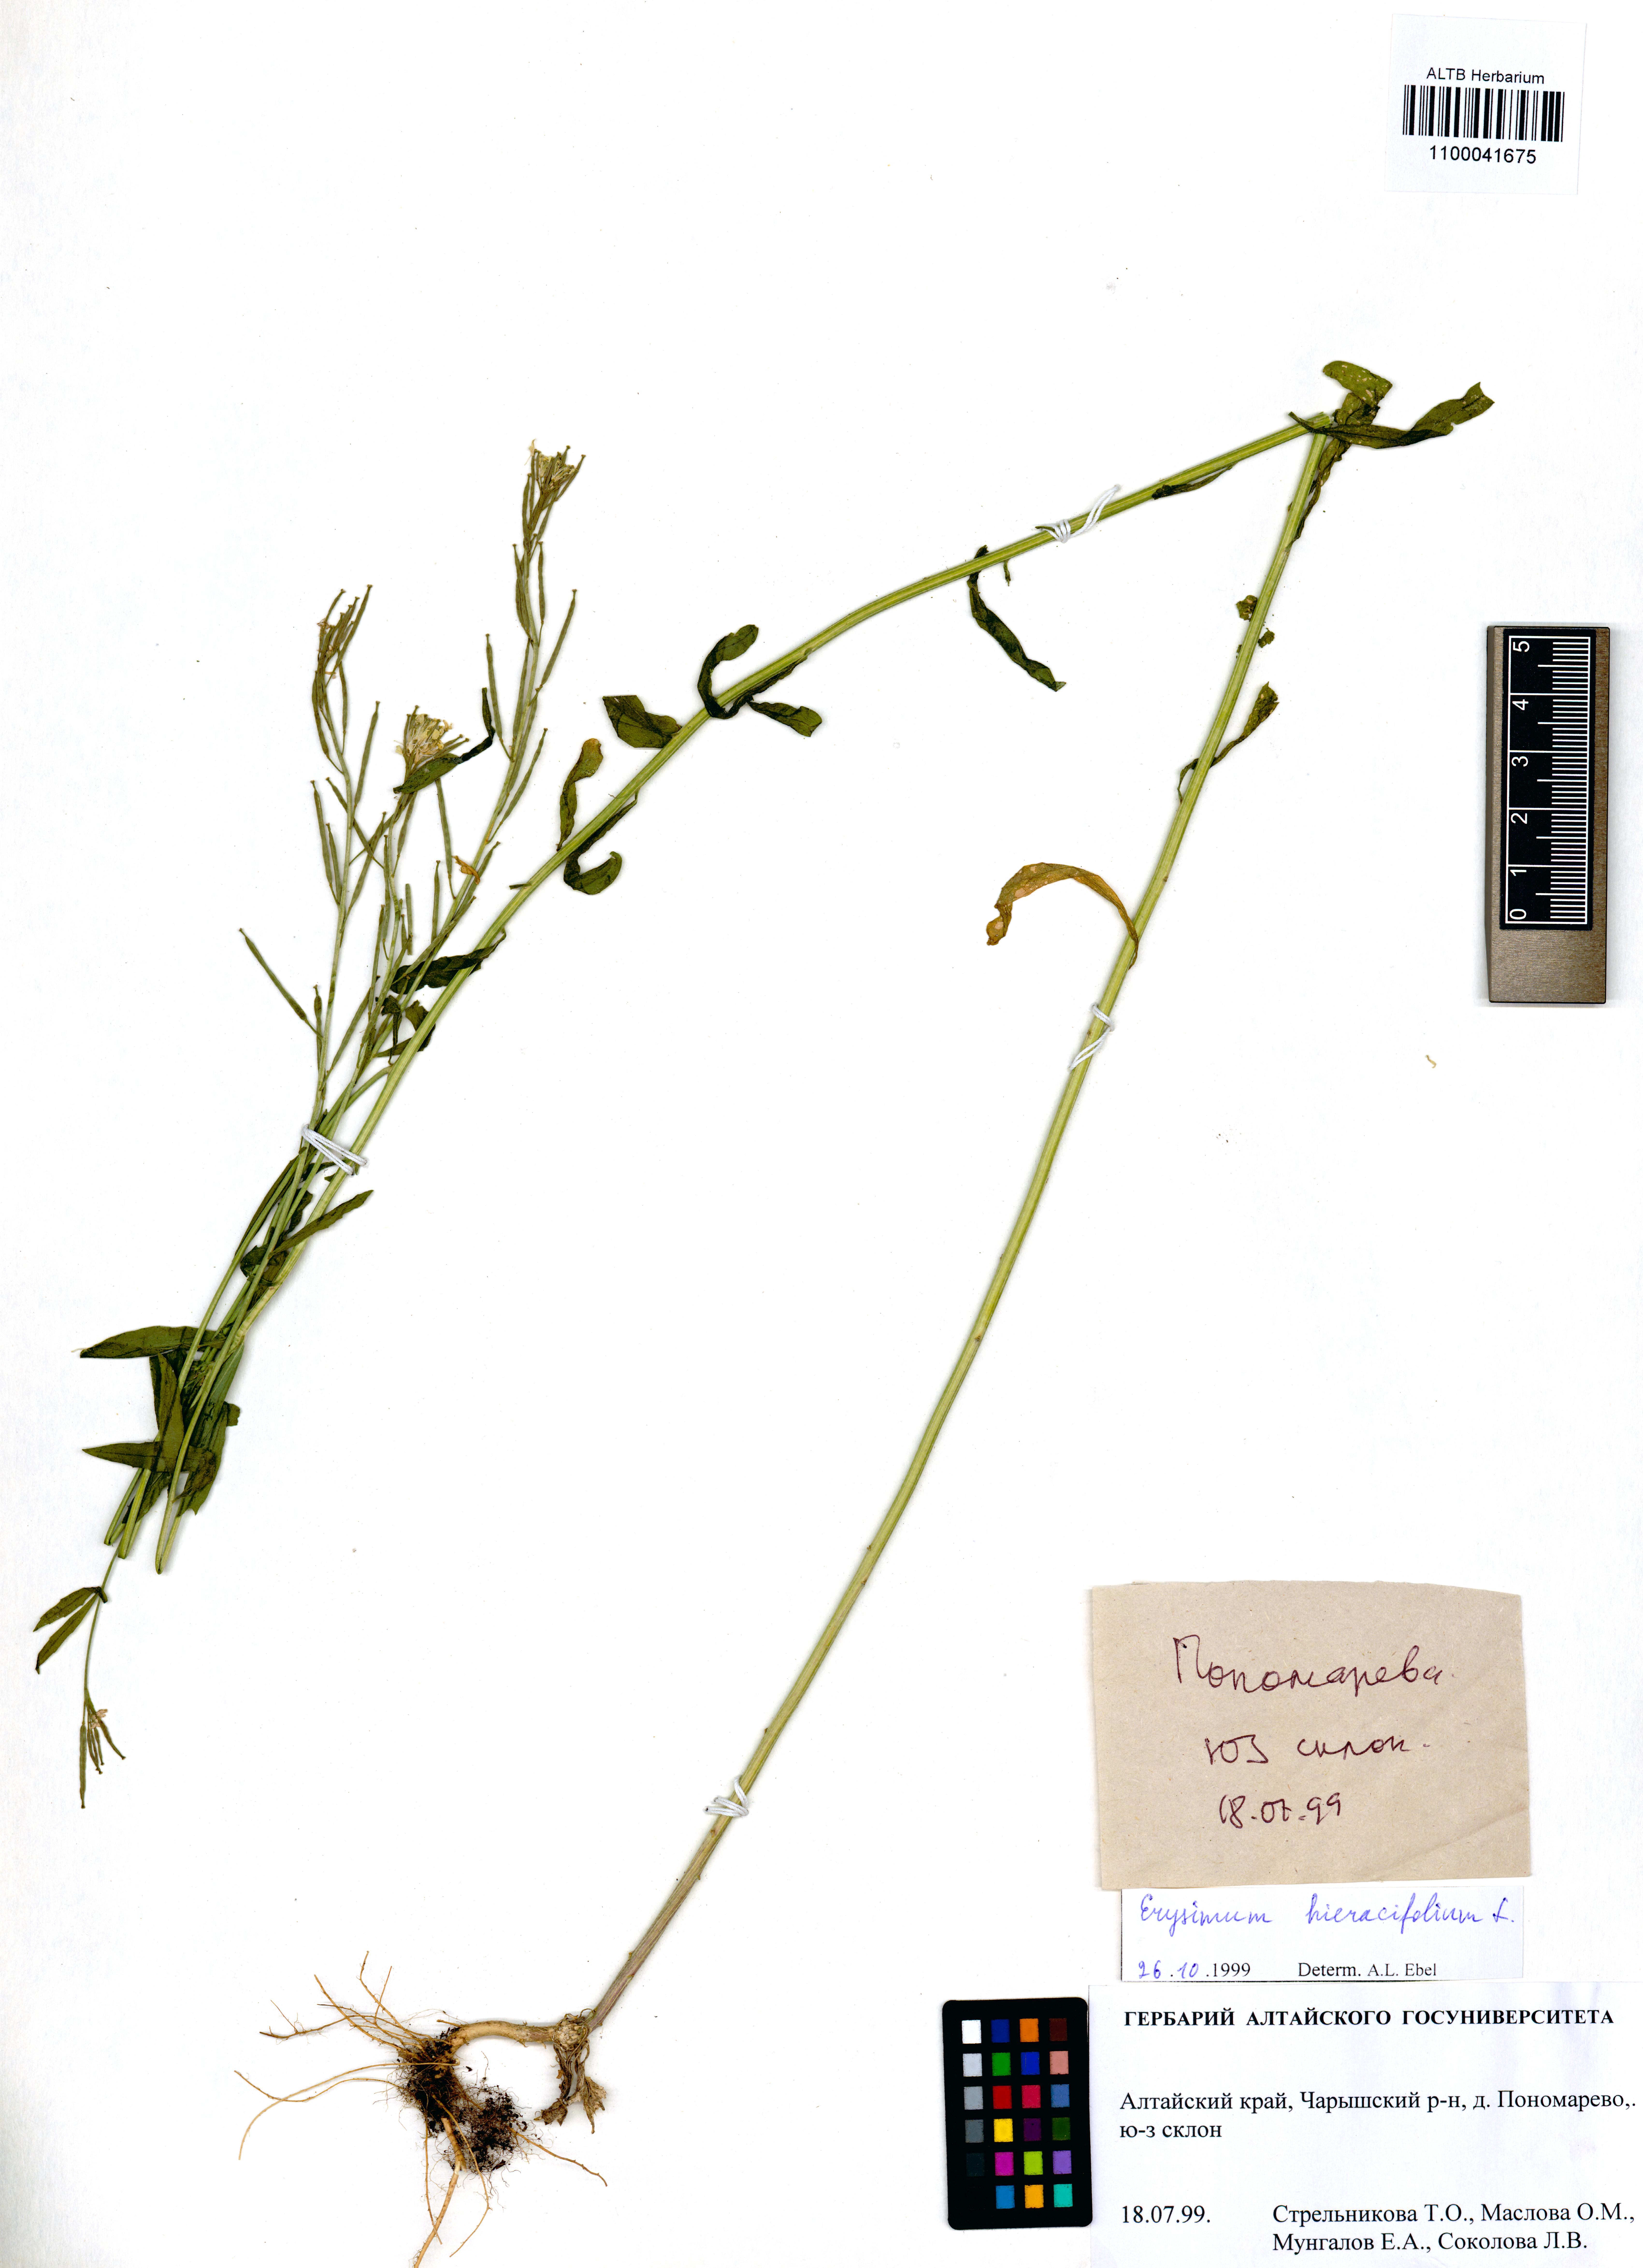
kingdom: Plantae
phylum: Tracheophyta
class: Magnoliopsida
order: Brassicales
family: Brassicaceae
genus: Erysimum
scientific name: Erysimum hieraciifolium
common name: European wallflower
